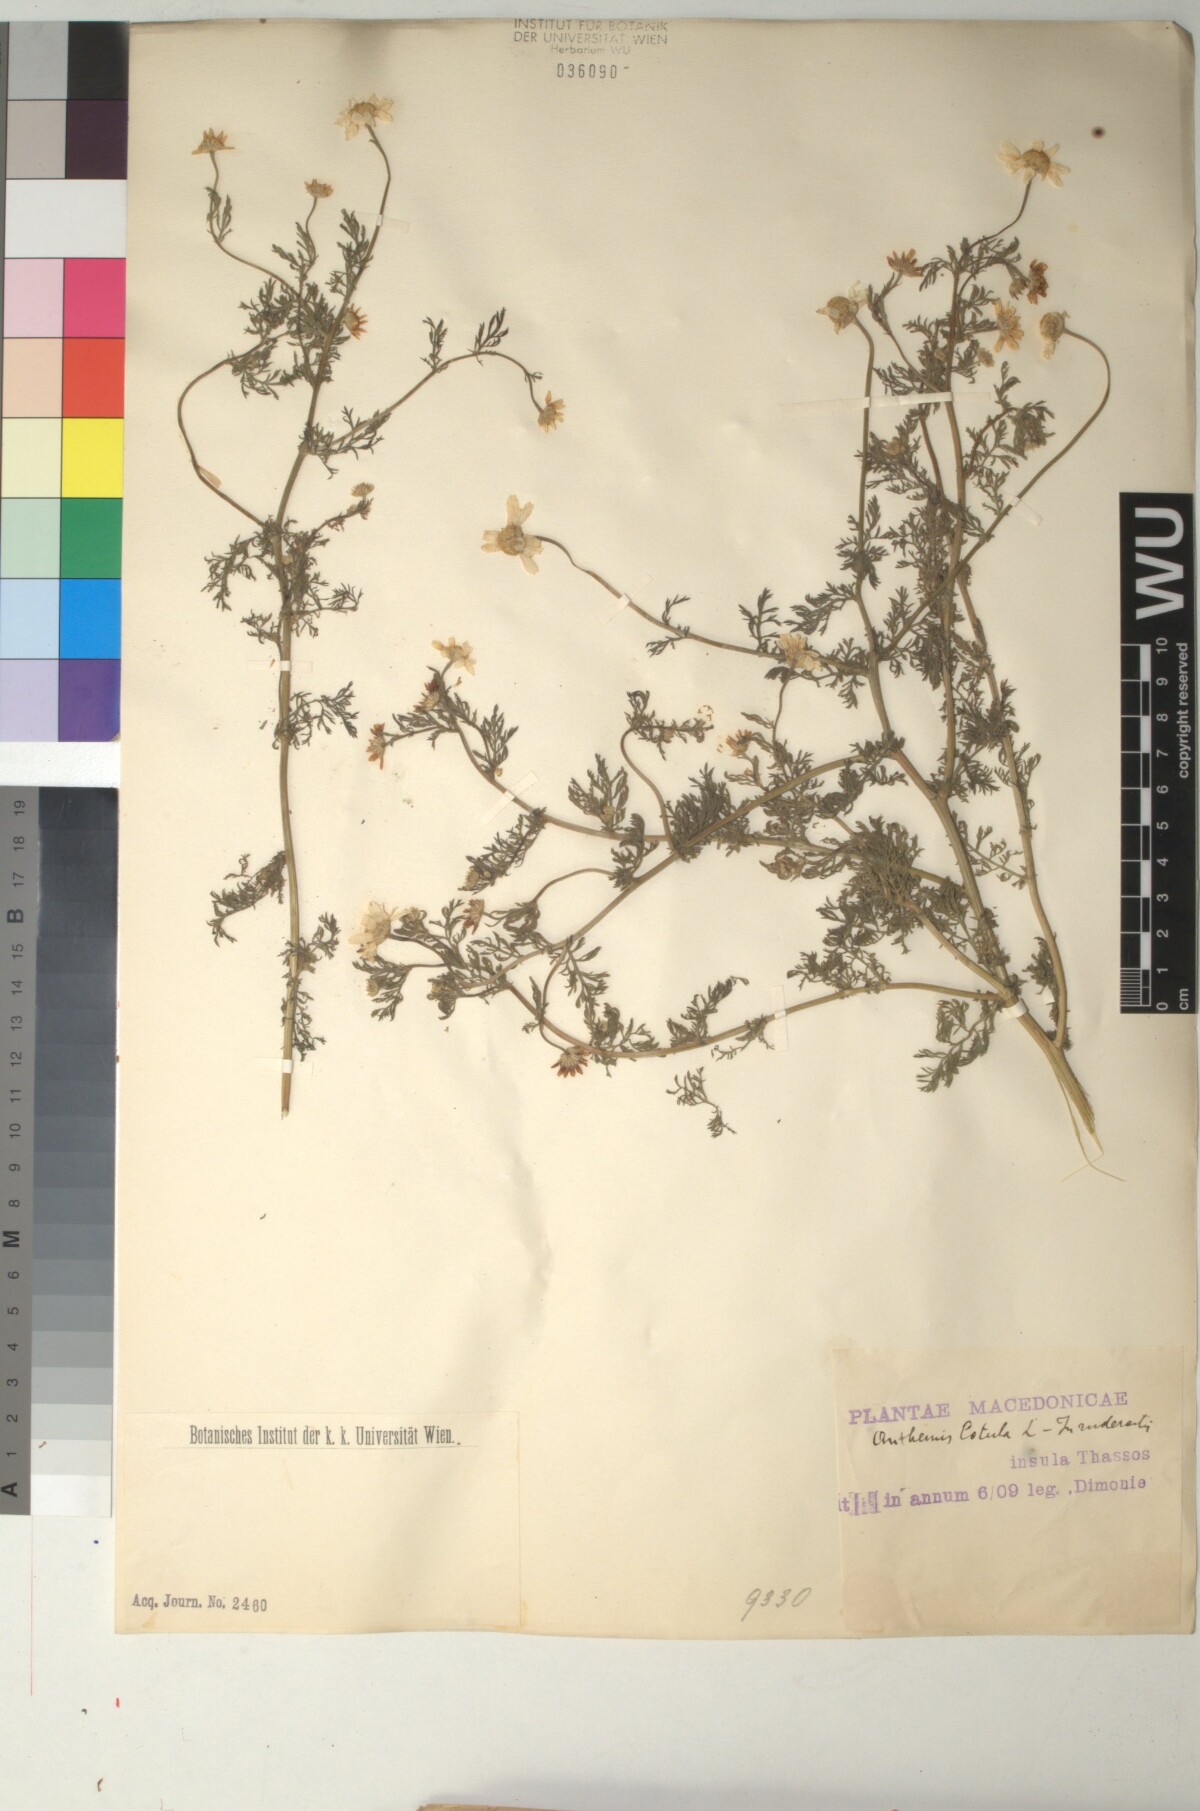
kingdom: Plantae
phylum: Tracheophyta
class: Magnoliopsida
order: Asterales
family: Asteraceae
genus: Anthemis
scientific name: Anthemis cotula
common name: Stinking chamomile
